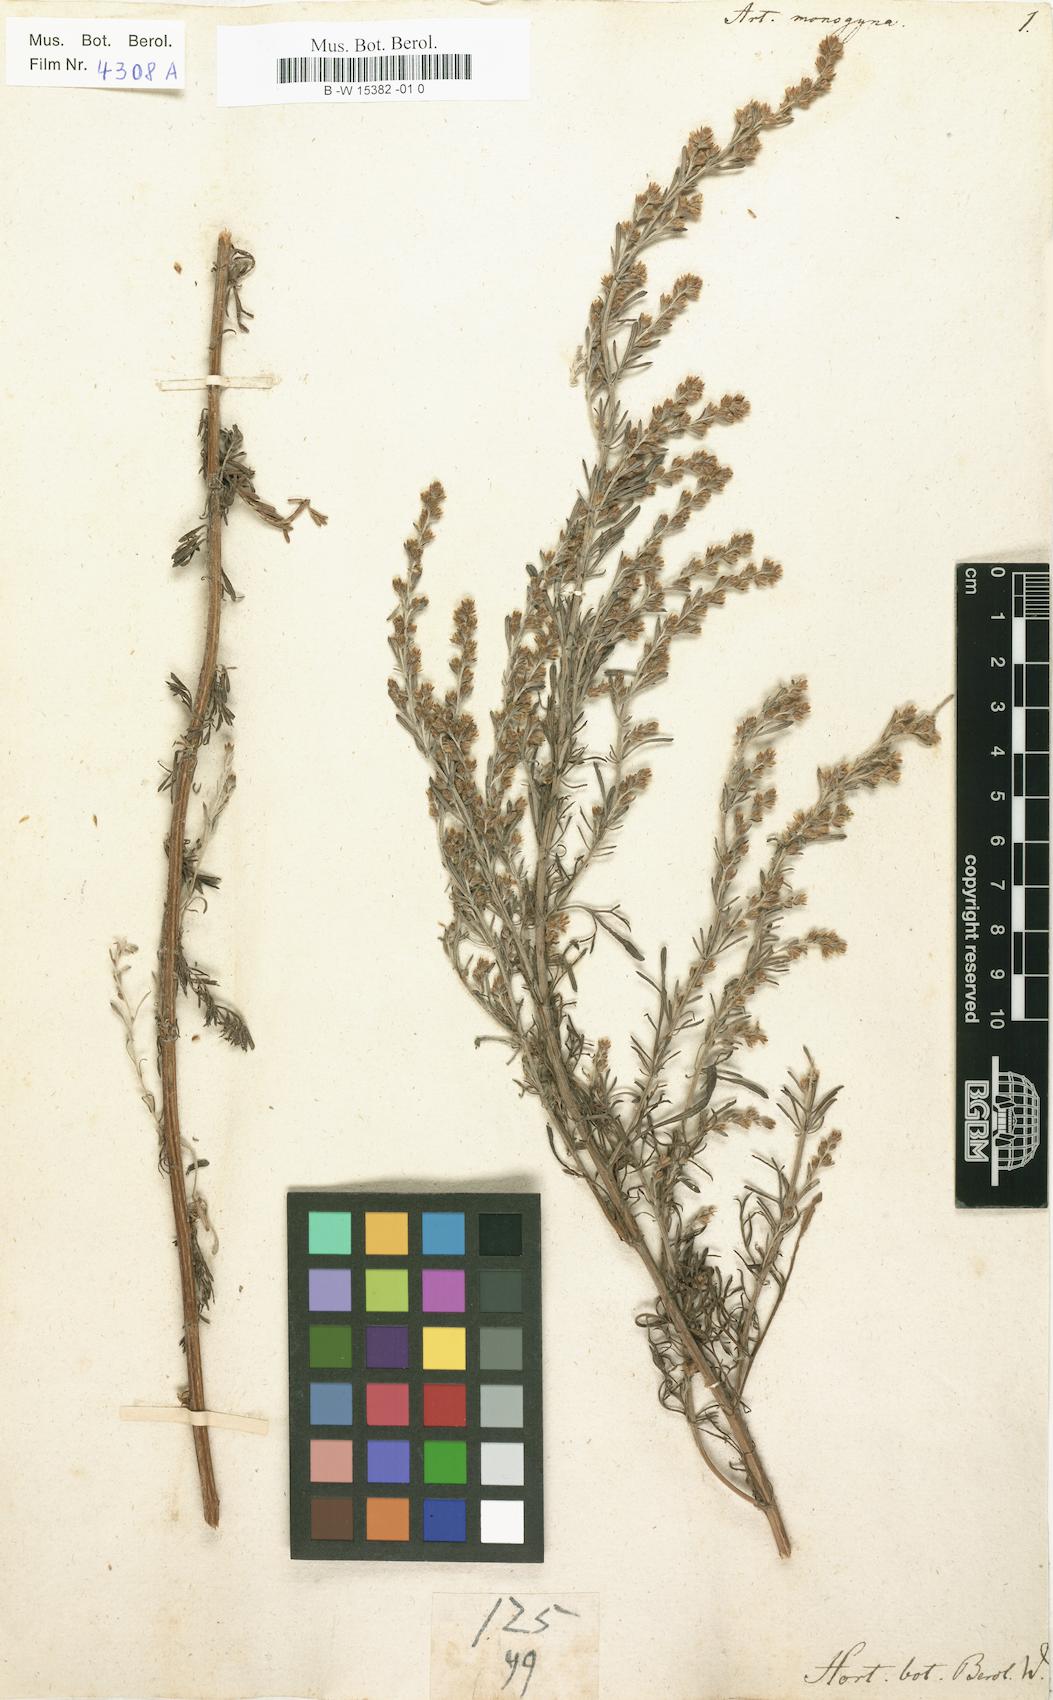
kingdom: Plantae
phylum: Tracheophyta
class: Magnoliopsida
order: Asterales
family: Asteraceae
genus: Artemisia
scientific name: Artemisia santonicum
